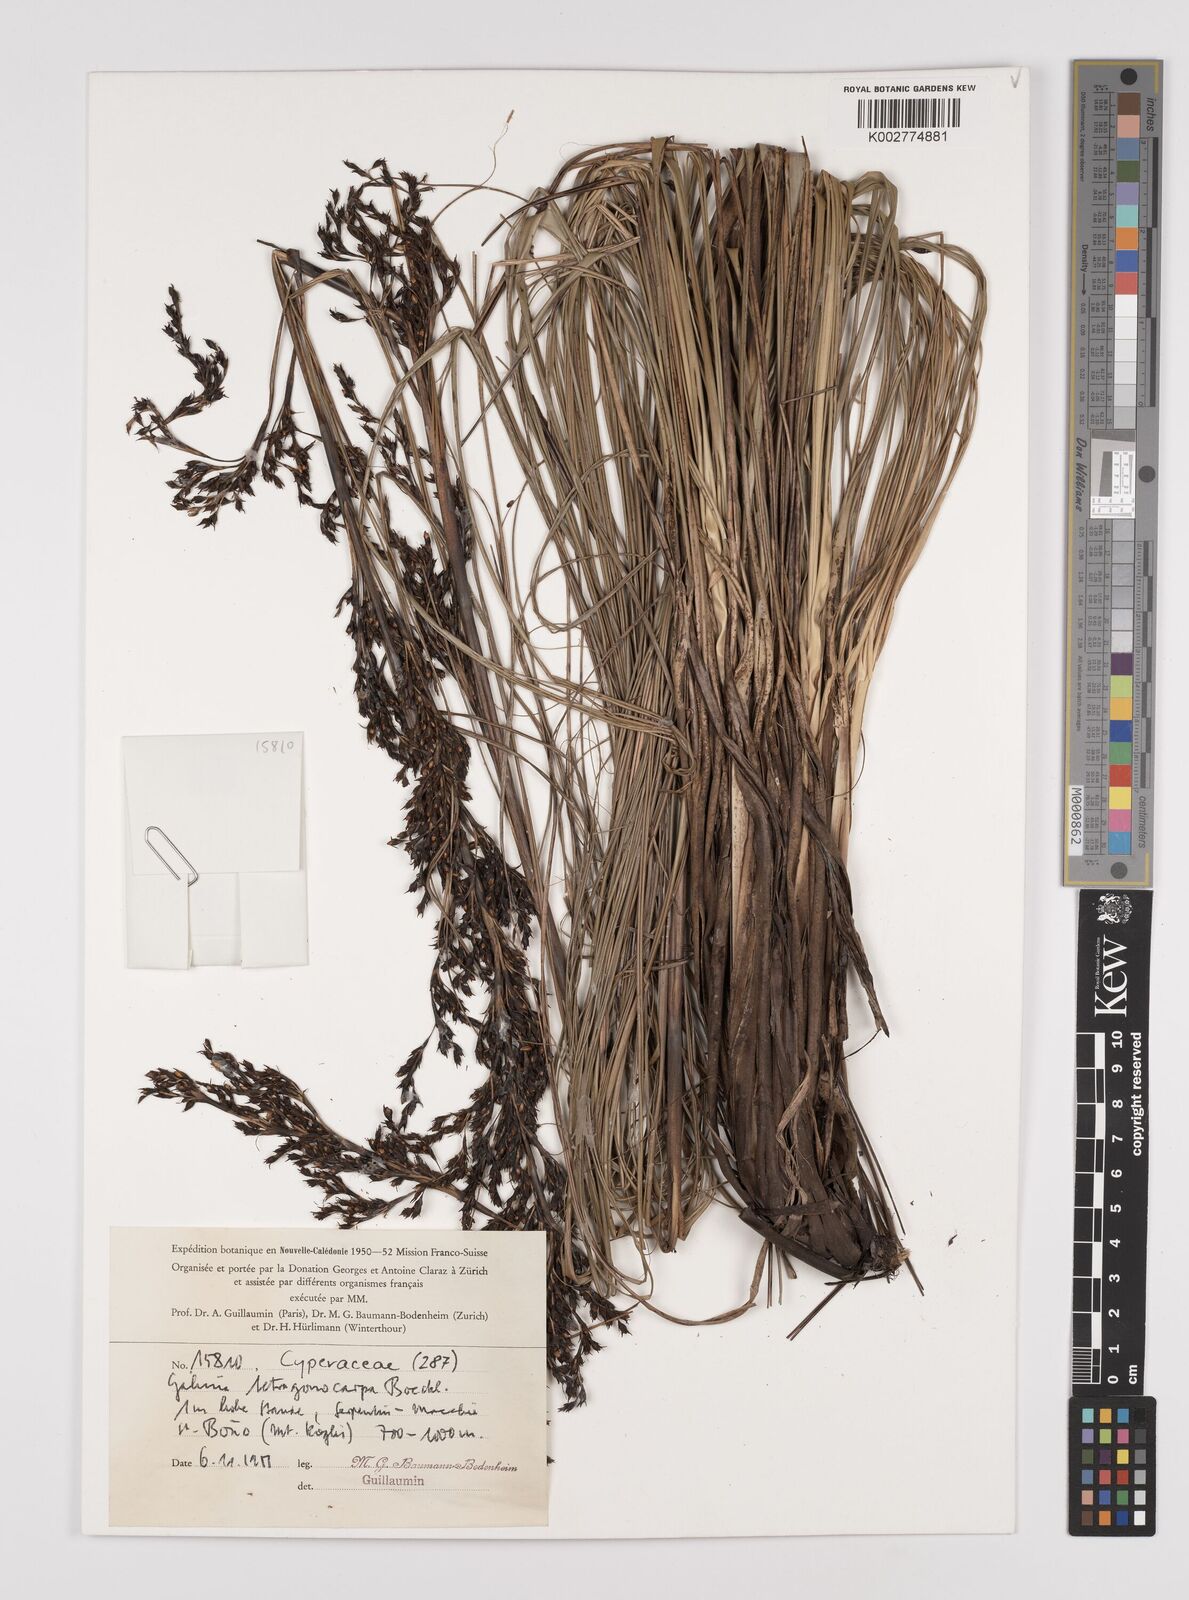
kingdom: Plantae
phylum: Tracheophyta
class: Liliopsida
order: Poales
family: Cyperaceae
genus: Gahnia
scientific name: Gahnia sieberiana
